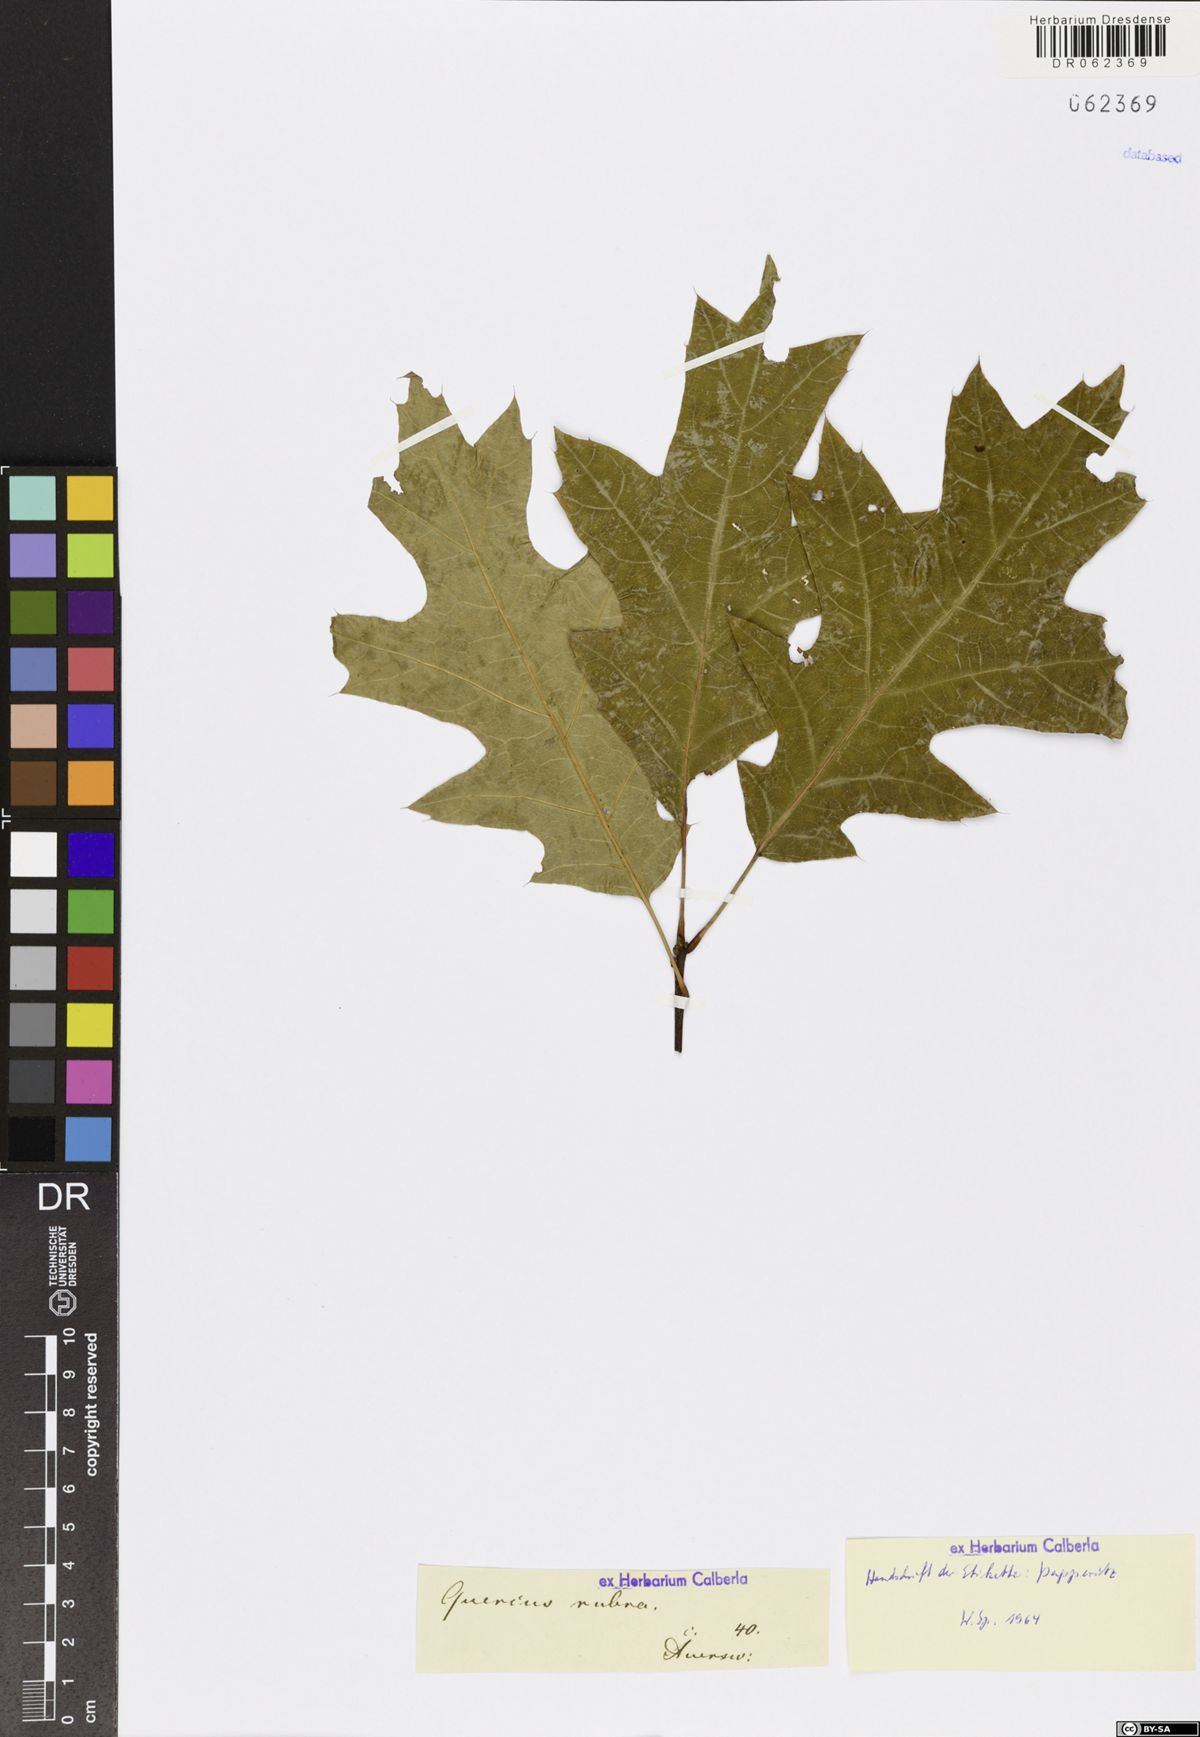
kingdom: Plantae
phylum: Tracheophyta
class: Magnoliopsida
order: Fagales
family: Fagaceae
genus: Quercus
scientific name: Quercus rubra
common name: Red oak
